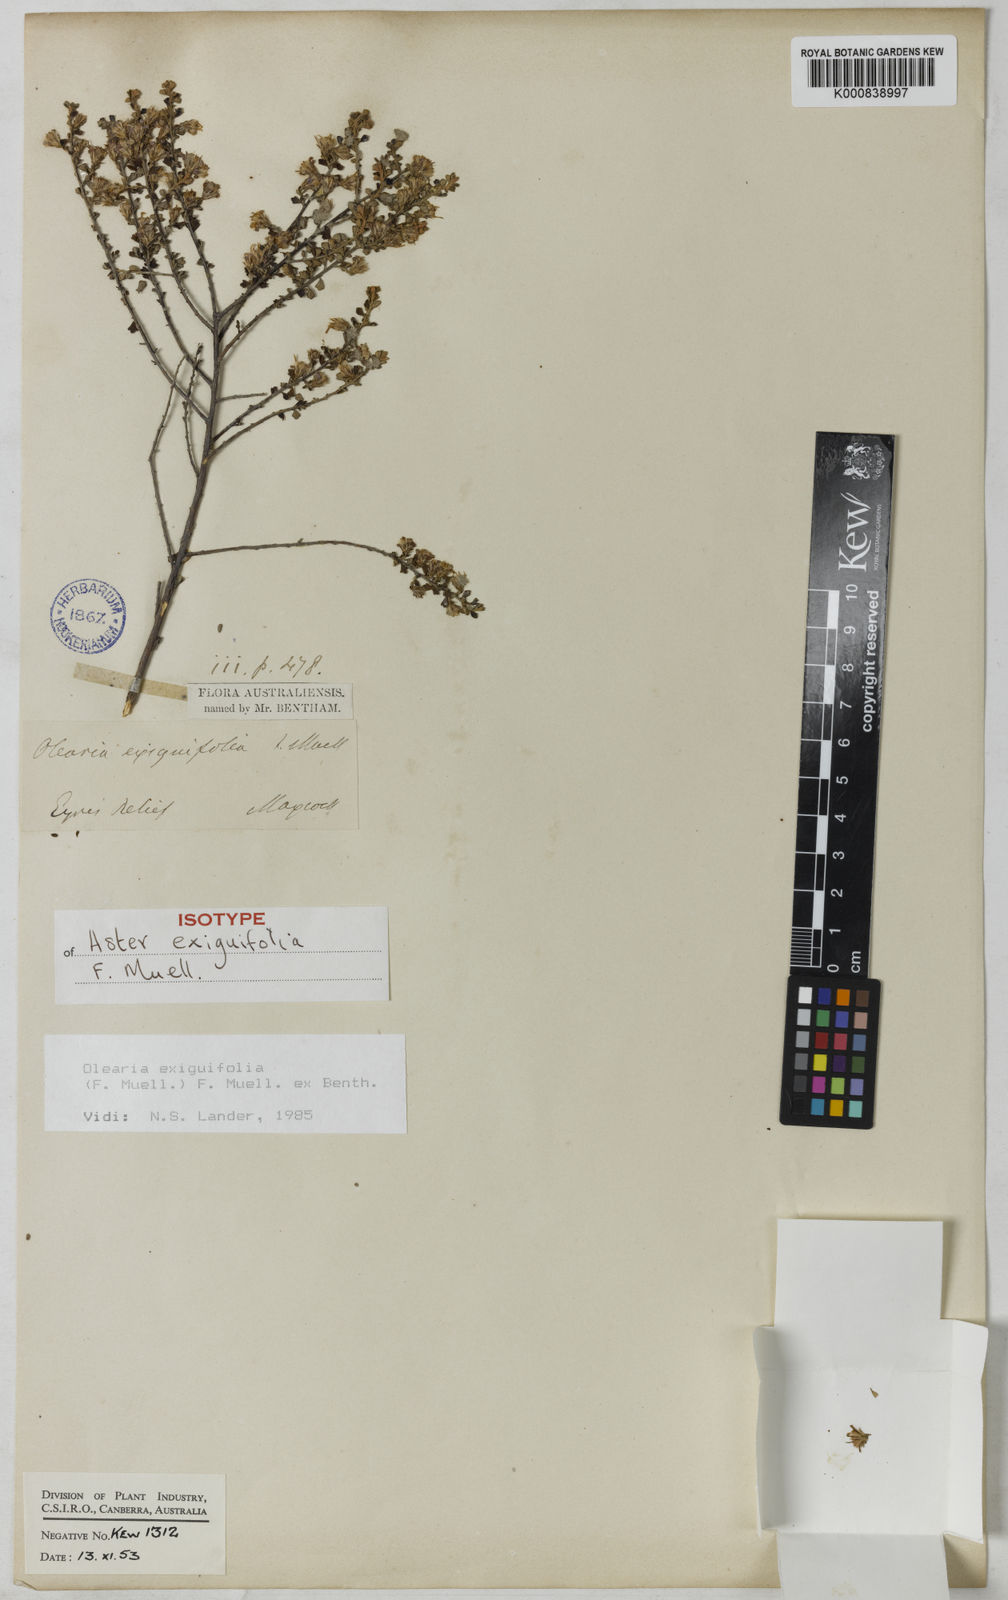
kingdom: Plantae
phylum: Tracheophyta
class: Magnoliopsida
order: Asterales
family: Asteraceae
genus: Olearia
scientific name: Olearia exiguifolia
